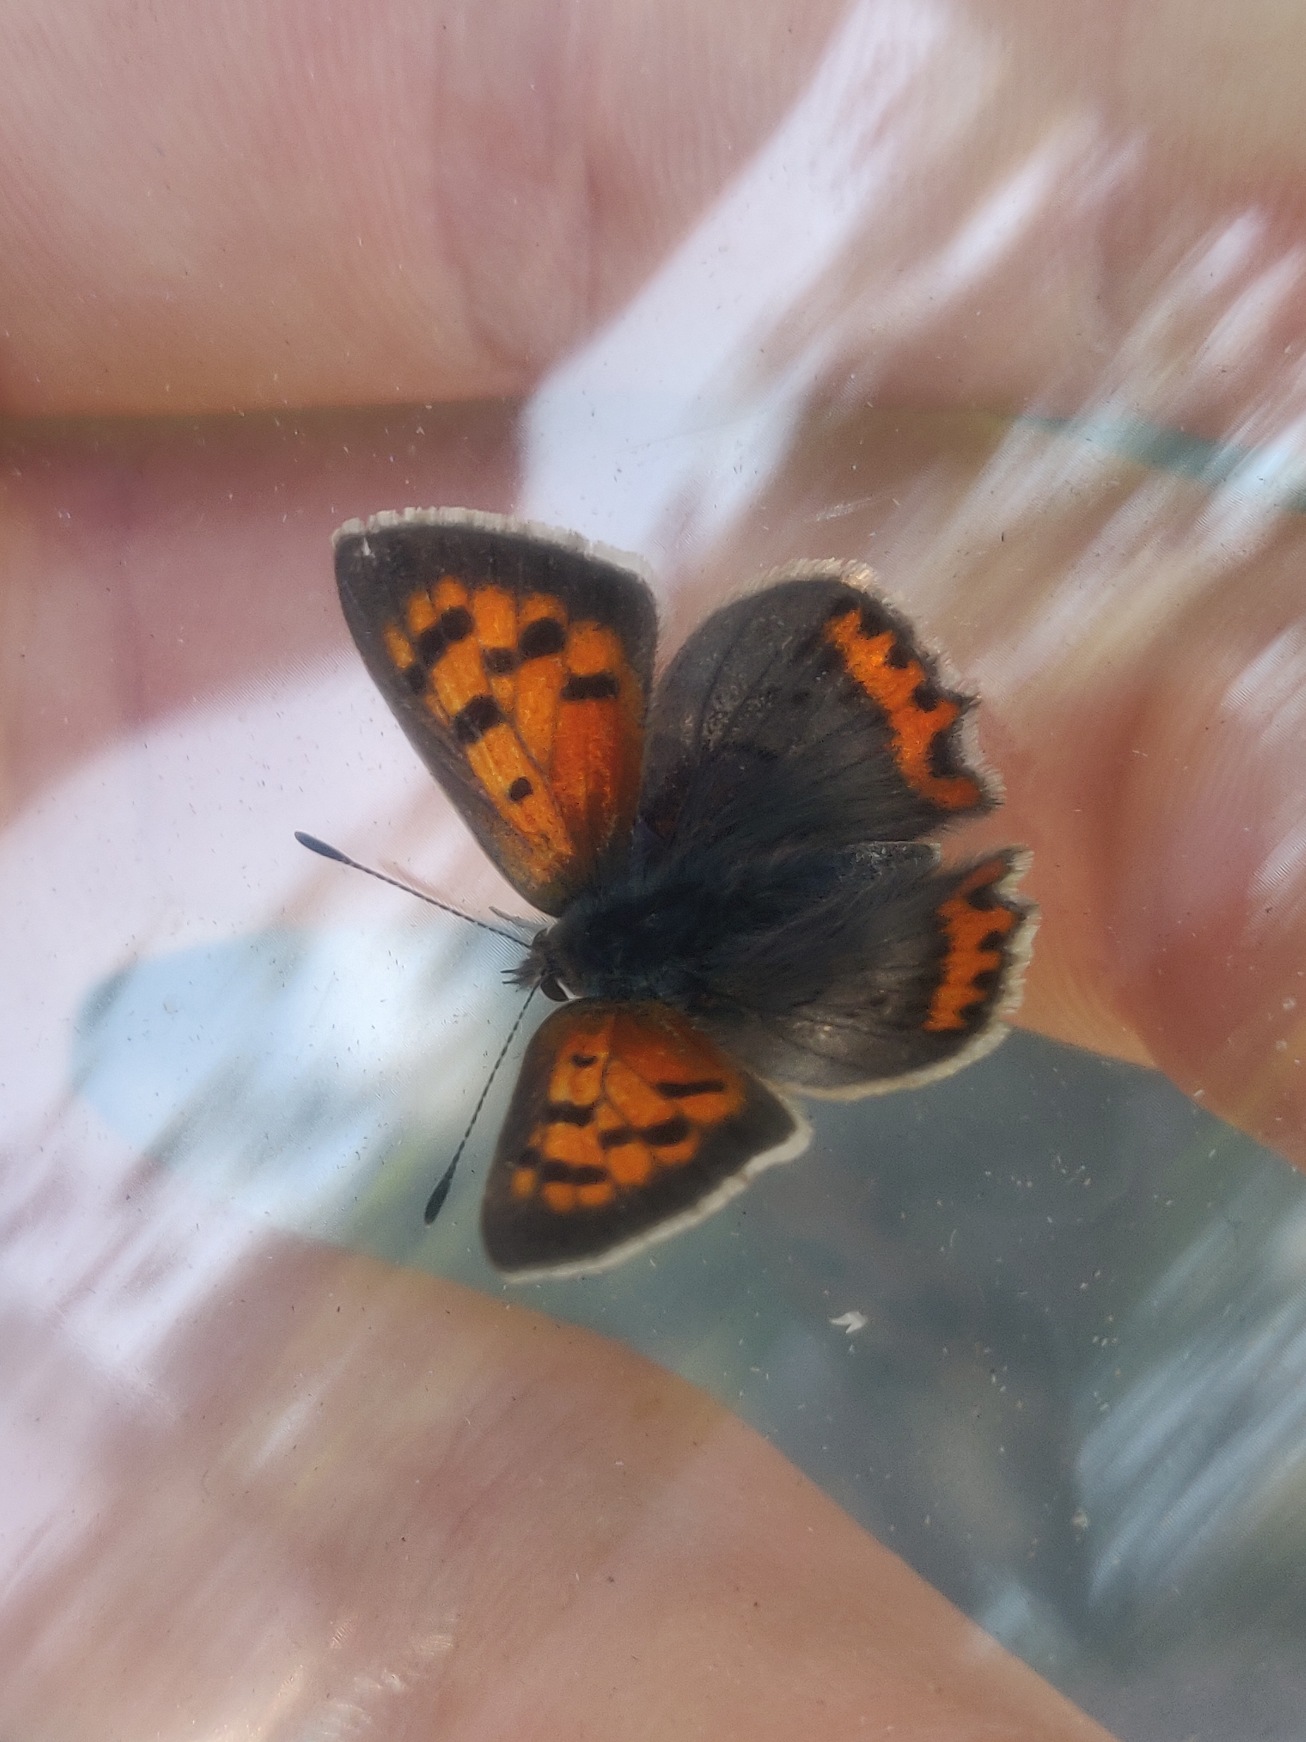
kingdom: Animalia
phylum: Arthropoda
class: Insecta
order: Lepidoptera
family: Lycaenidae
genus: Lycaena
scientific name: Lycaena phlaeas
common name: Lille ildfugl
